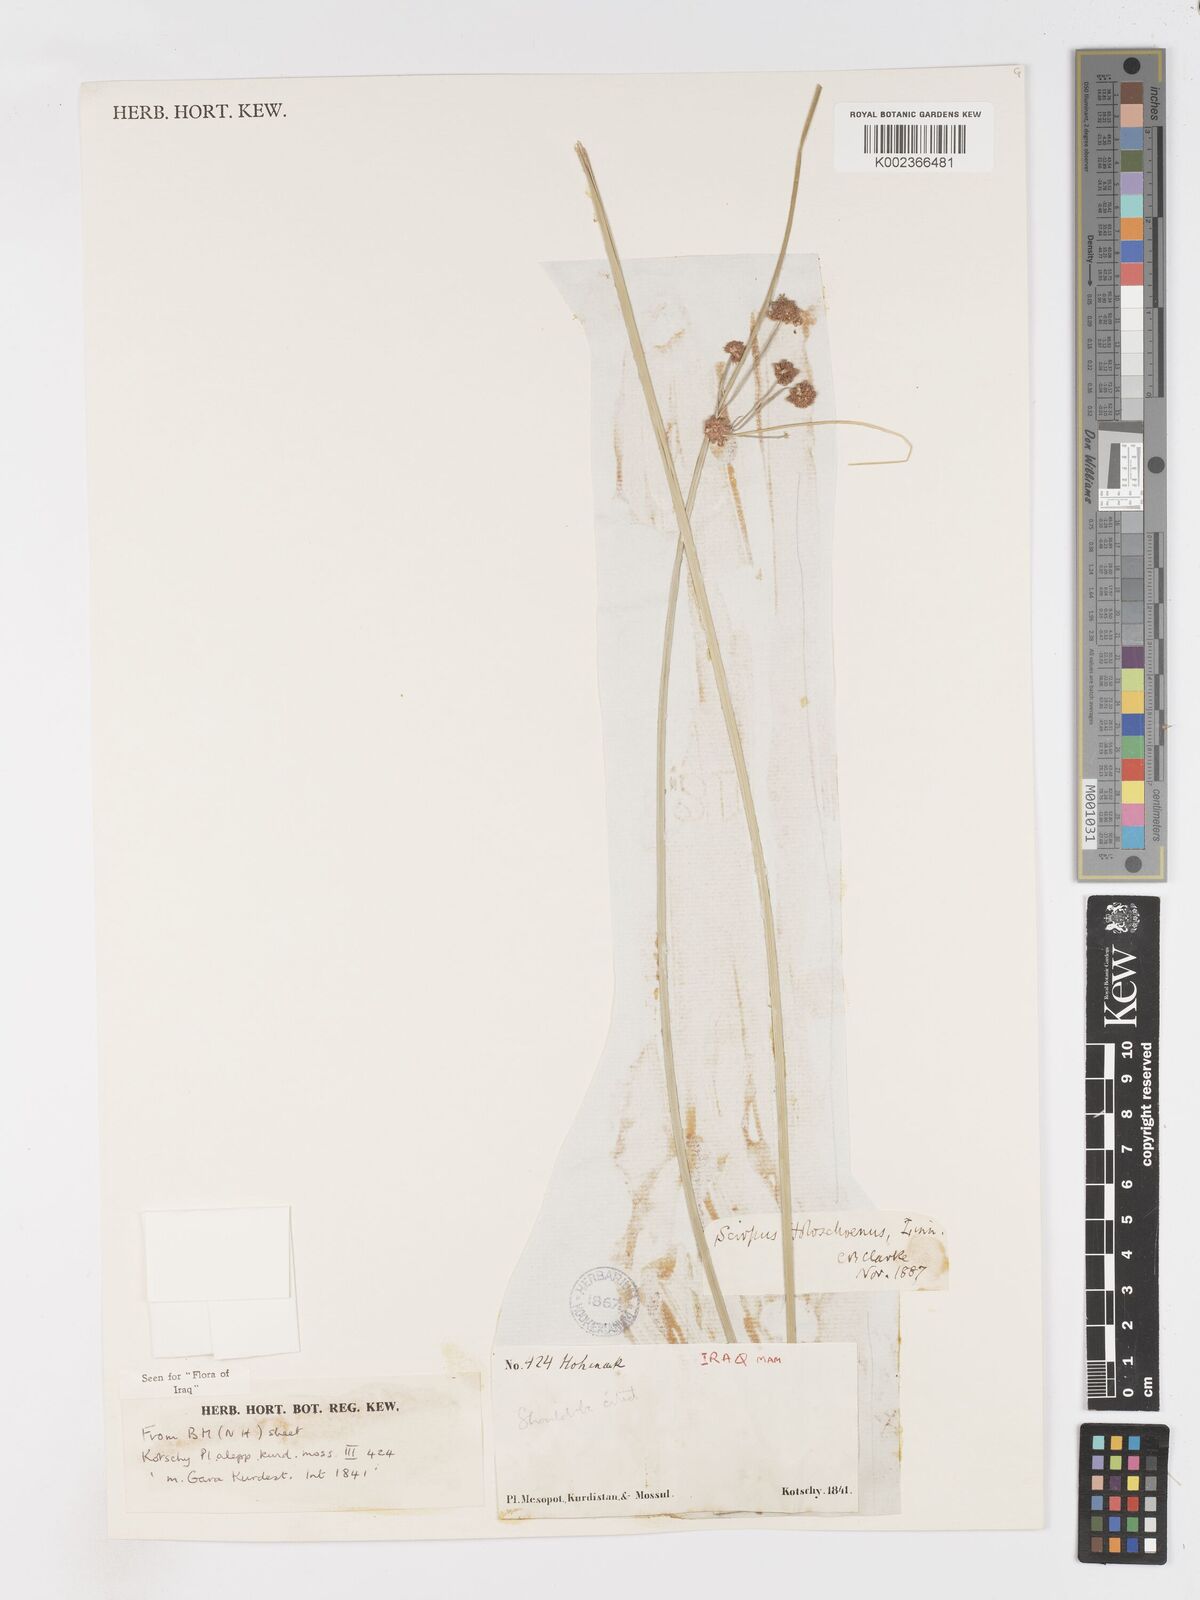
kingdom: Plantae
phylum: Tracheophyta
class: Liliopsida
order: Poales
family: Cyperaceae
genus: Scirpoides
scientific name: Scirpoides holoschoenus
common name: Round-headed club-rush
